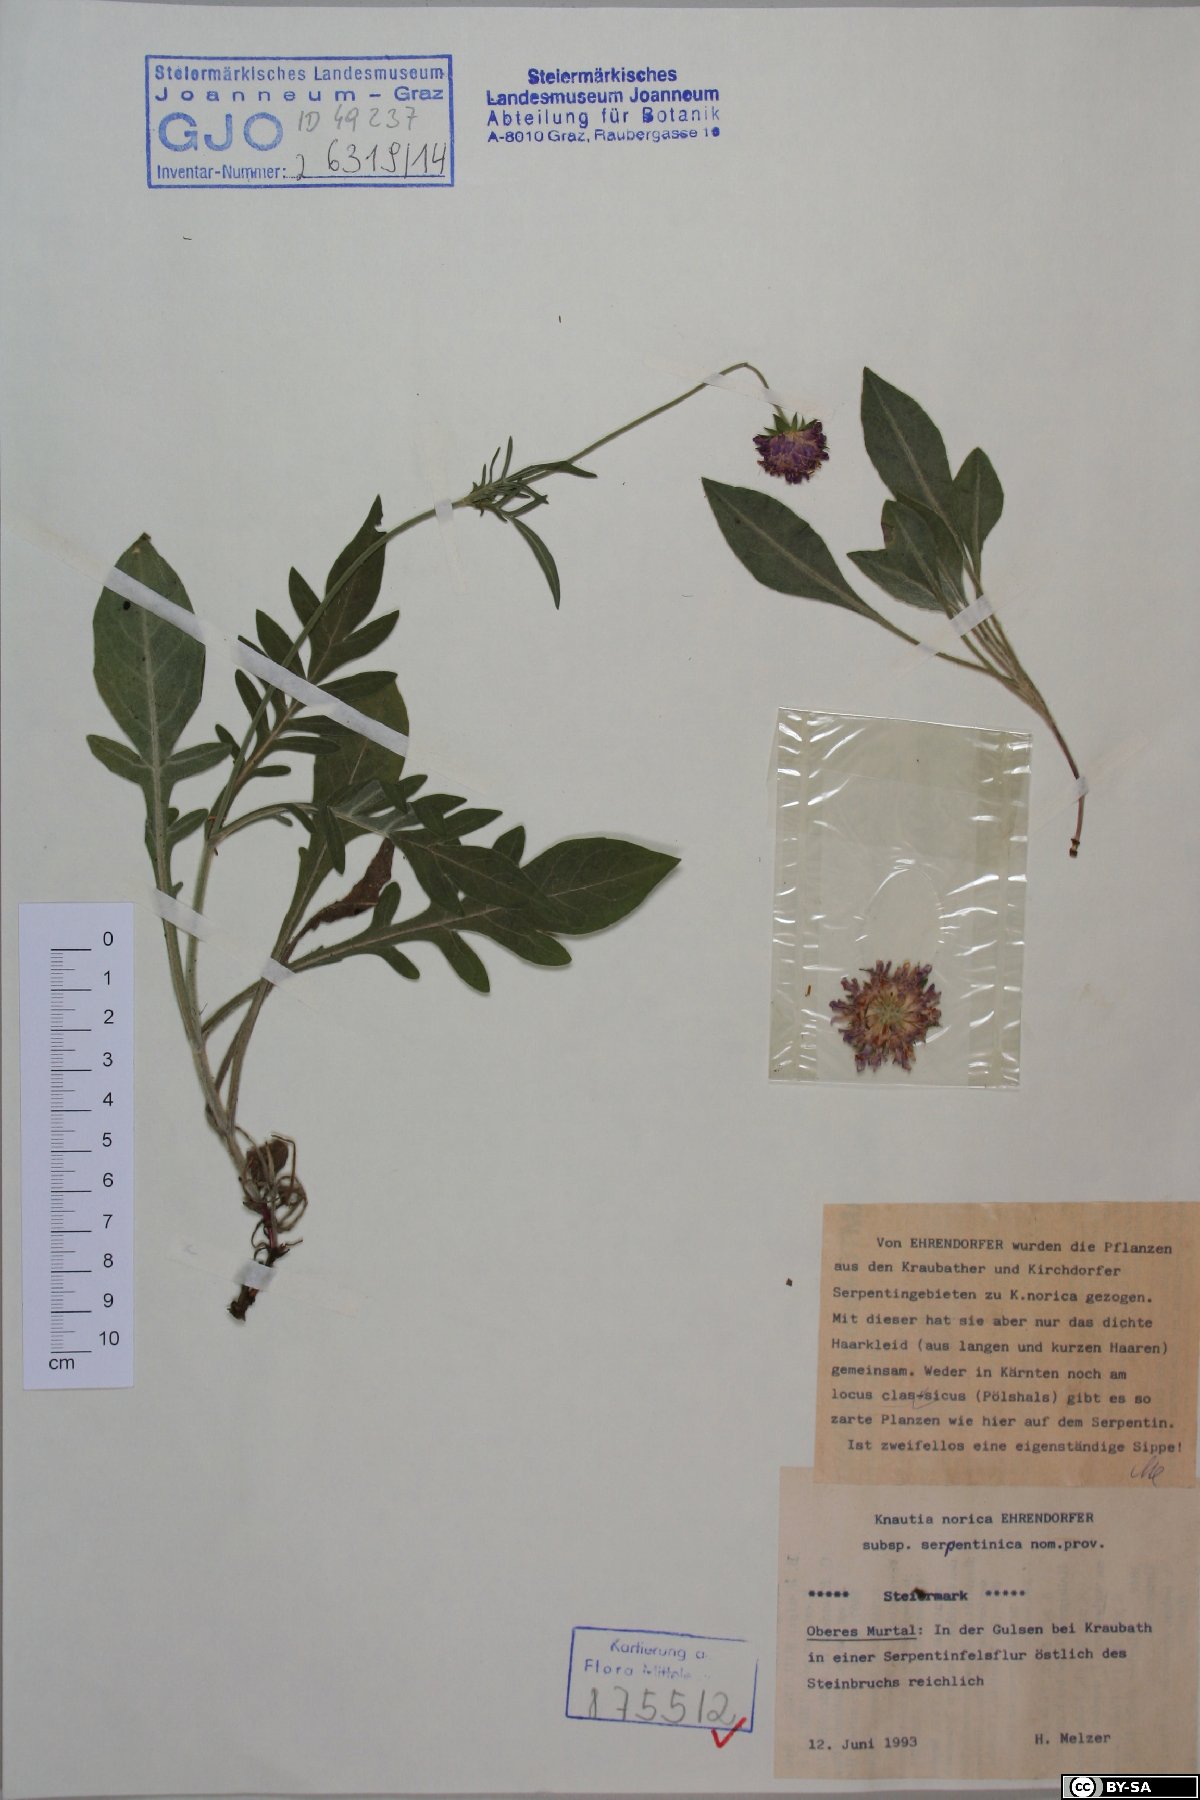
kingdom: Plantae
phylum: Tracheophyta
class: Magnoliopsida
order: Dipsacales
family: Caprifoliaceae
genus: Knautia
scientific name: Knautia norica
